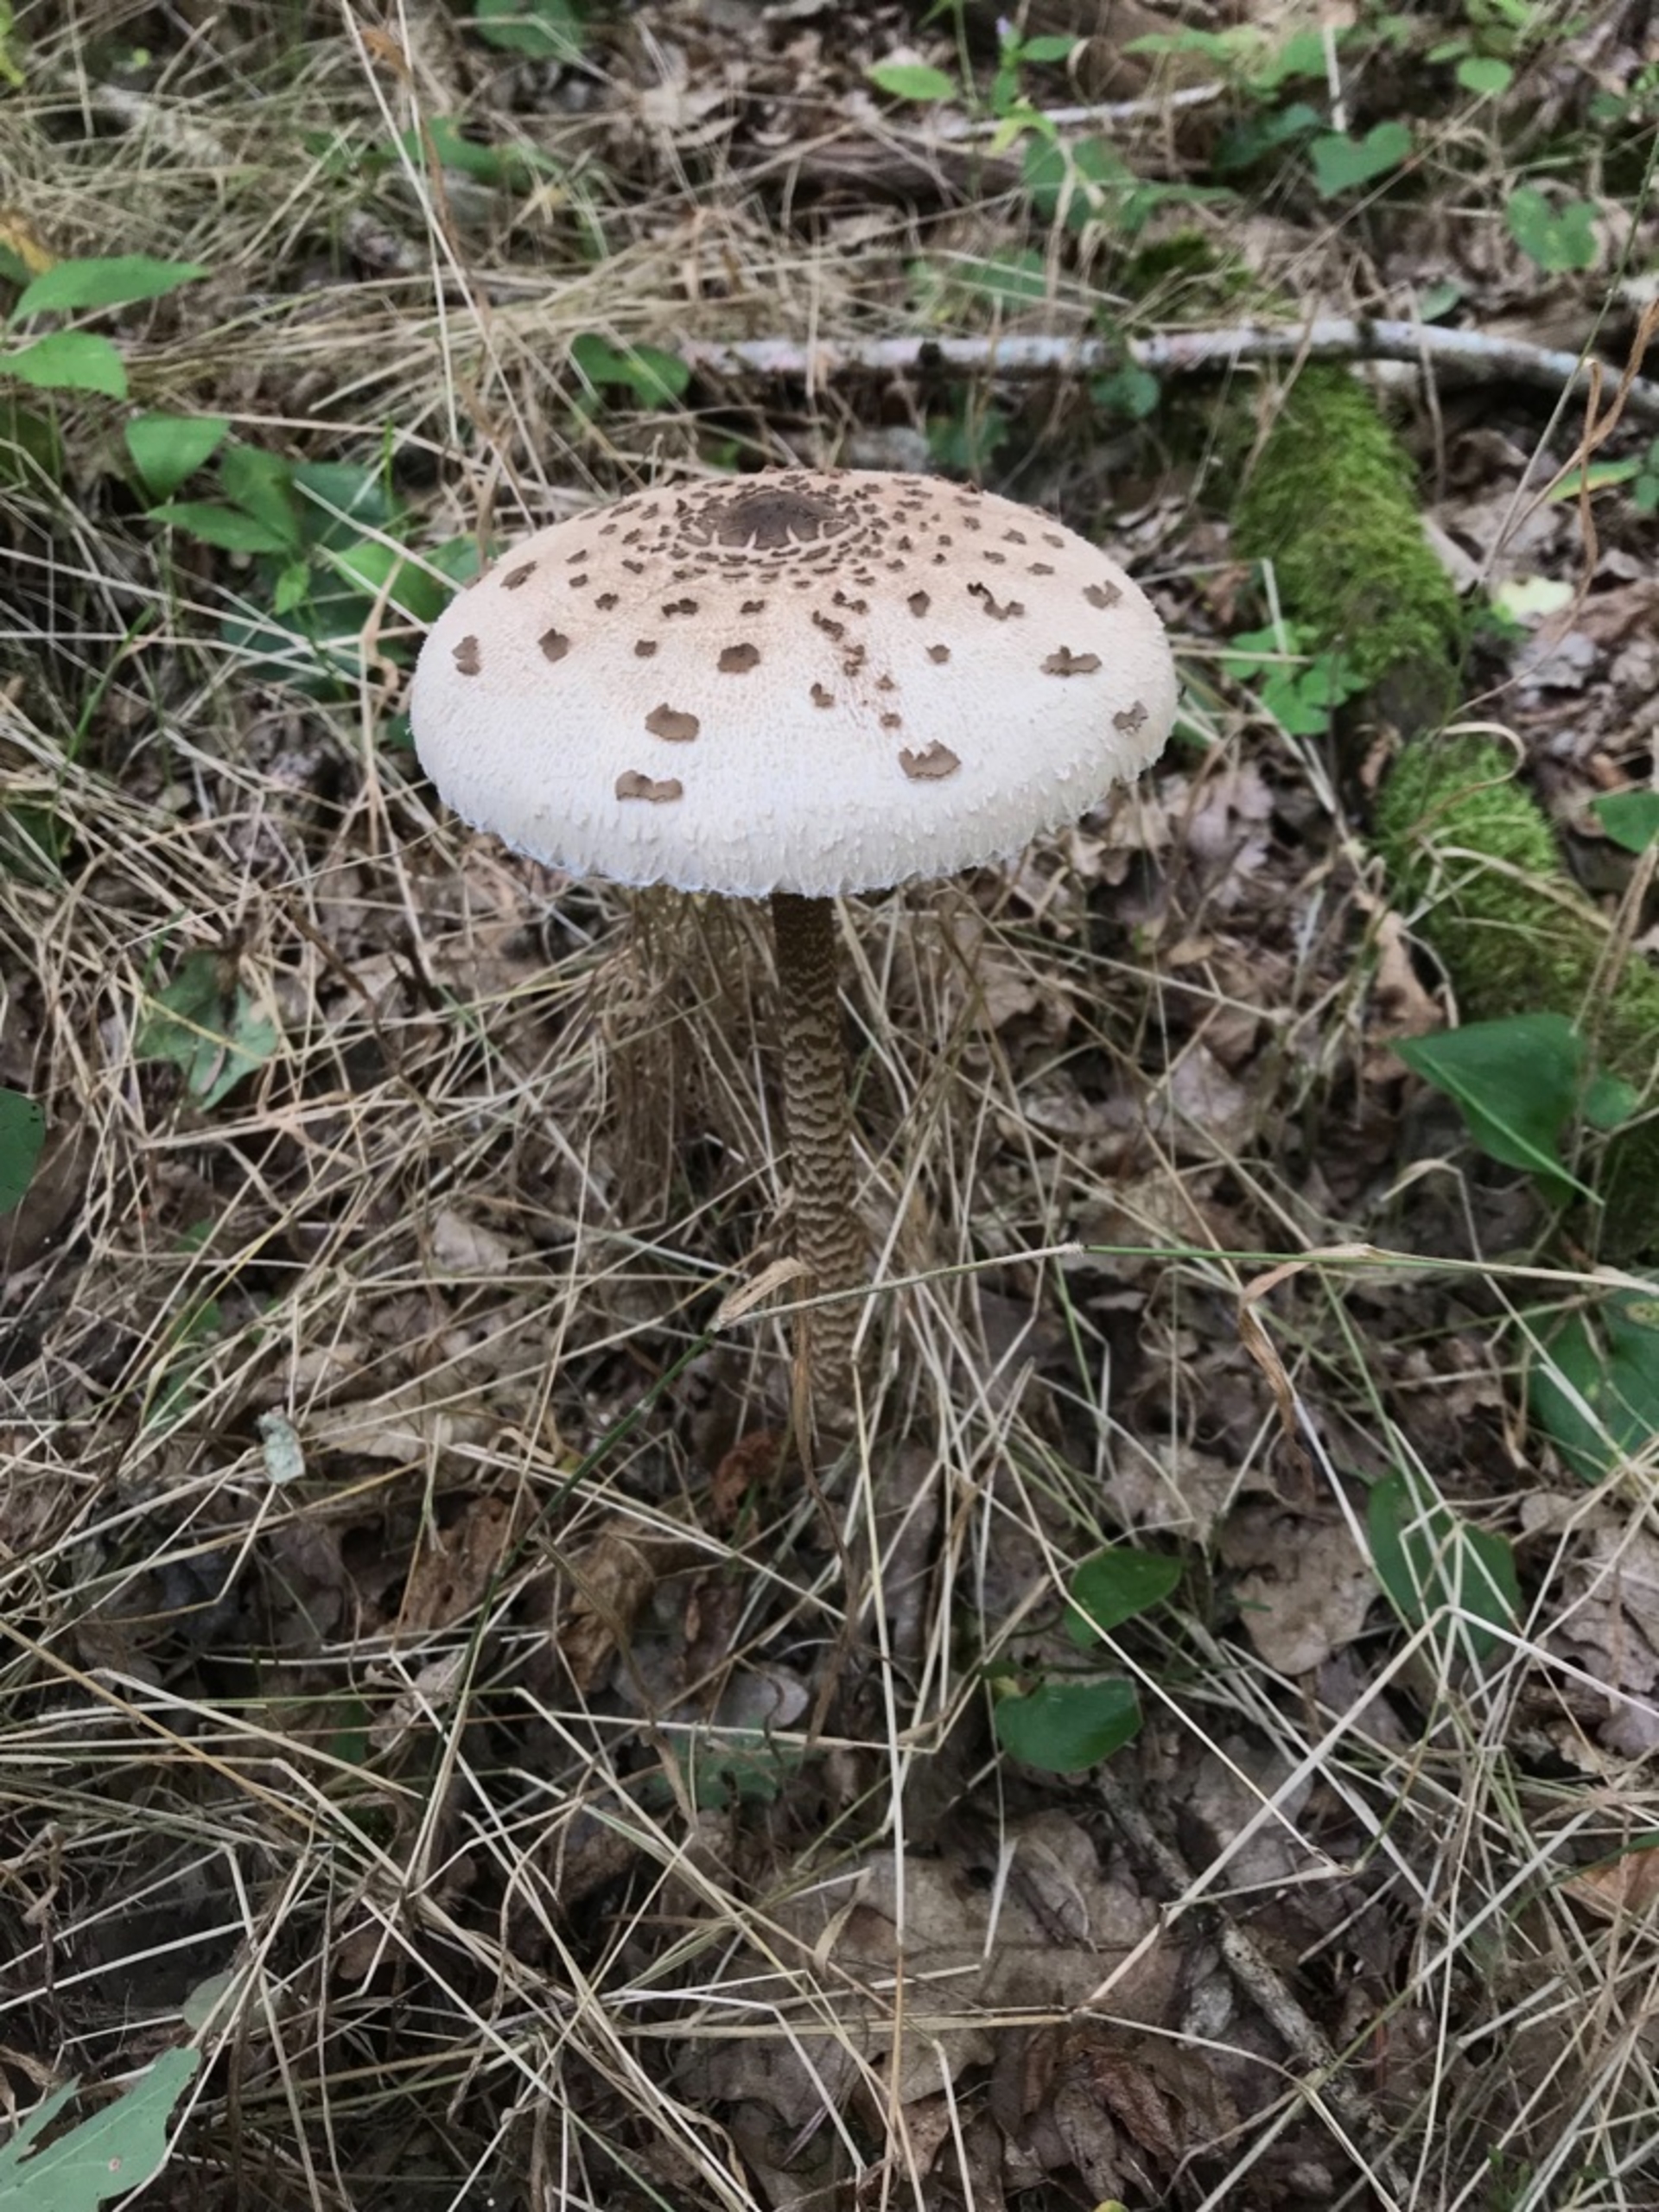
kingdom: Fungi
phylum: Basidiomycota
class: Agaricomycetes
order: Agaricales
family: Agaricaceae
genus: Macrolepiota
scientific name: Macrolepiota procera
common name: Stor kæmpeparasolhat
